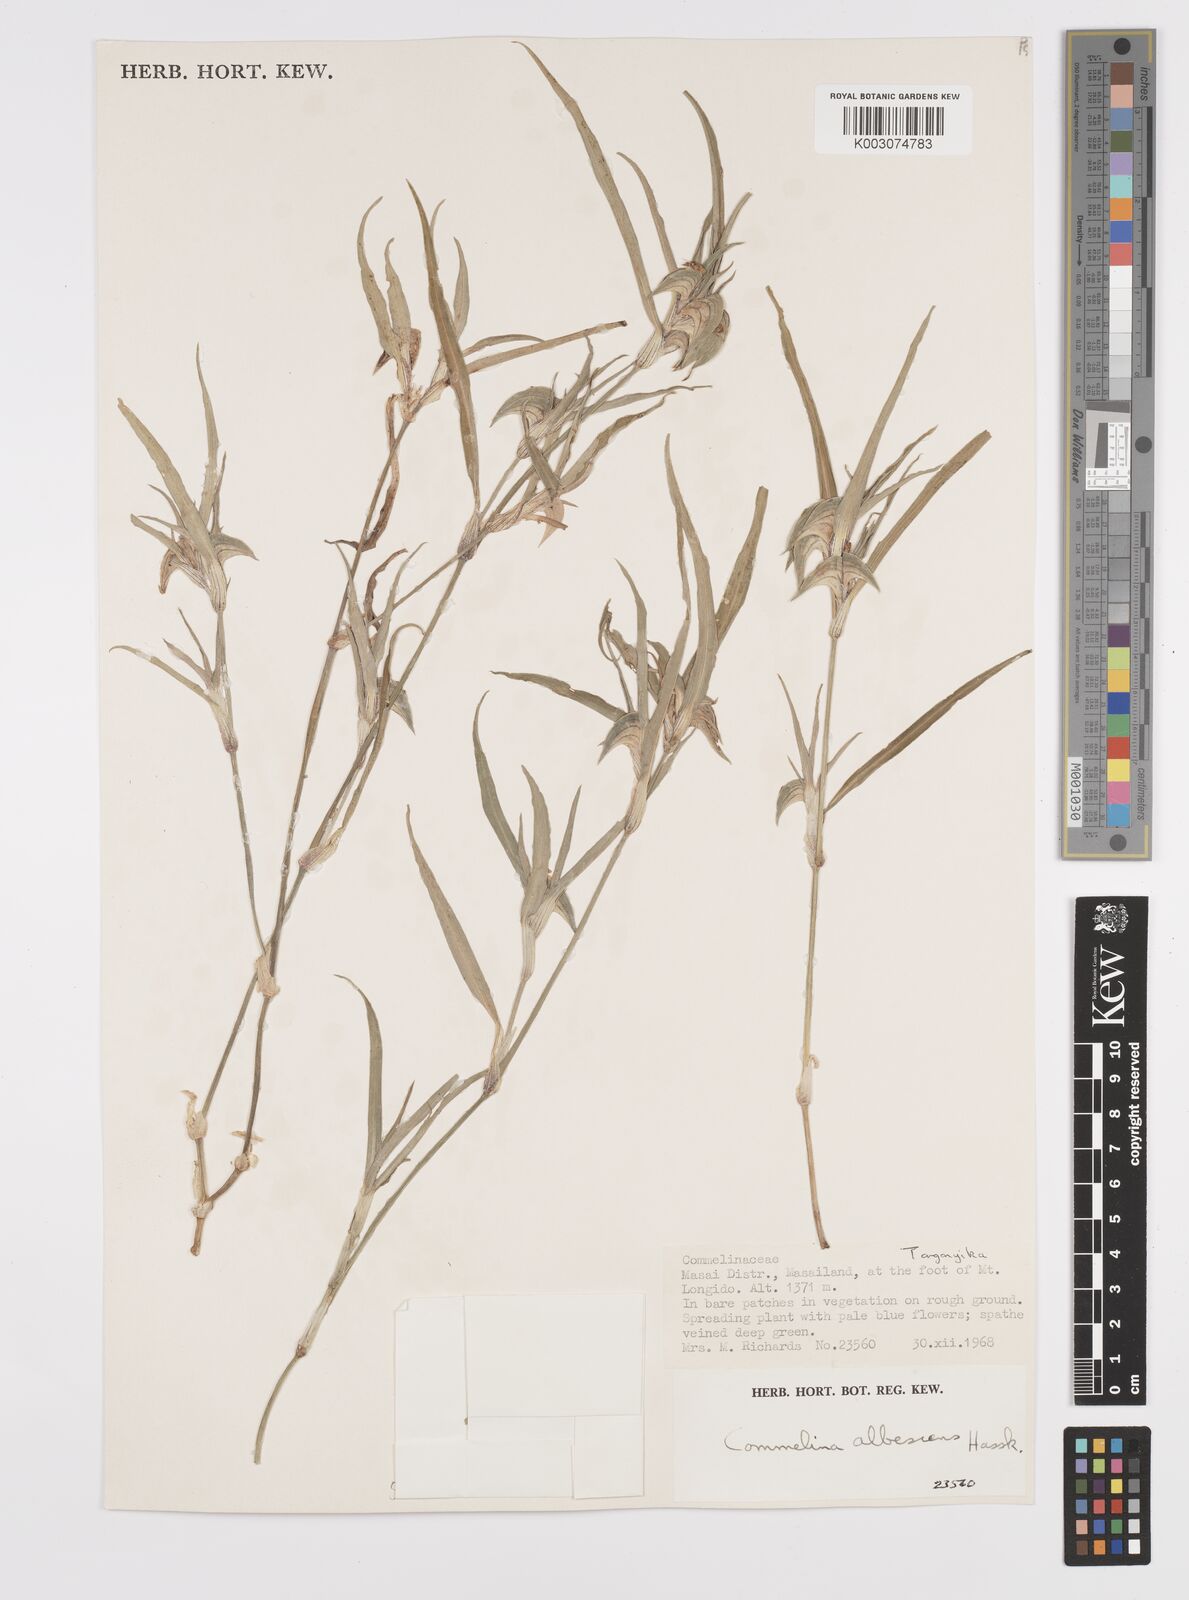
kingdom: Plantae
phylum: Tracheophyta
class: Liliopsida
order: Commelinales
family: Commelinaceae
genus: Commelina
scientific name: Commelina albescens
